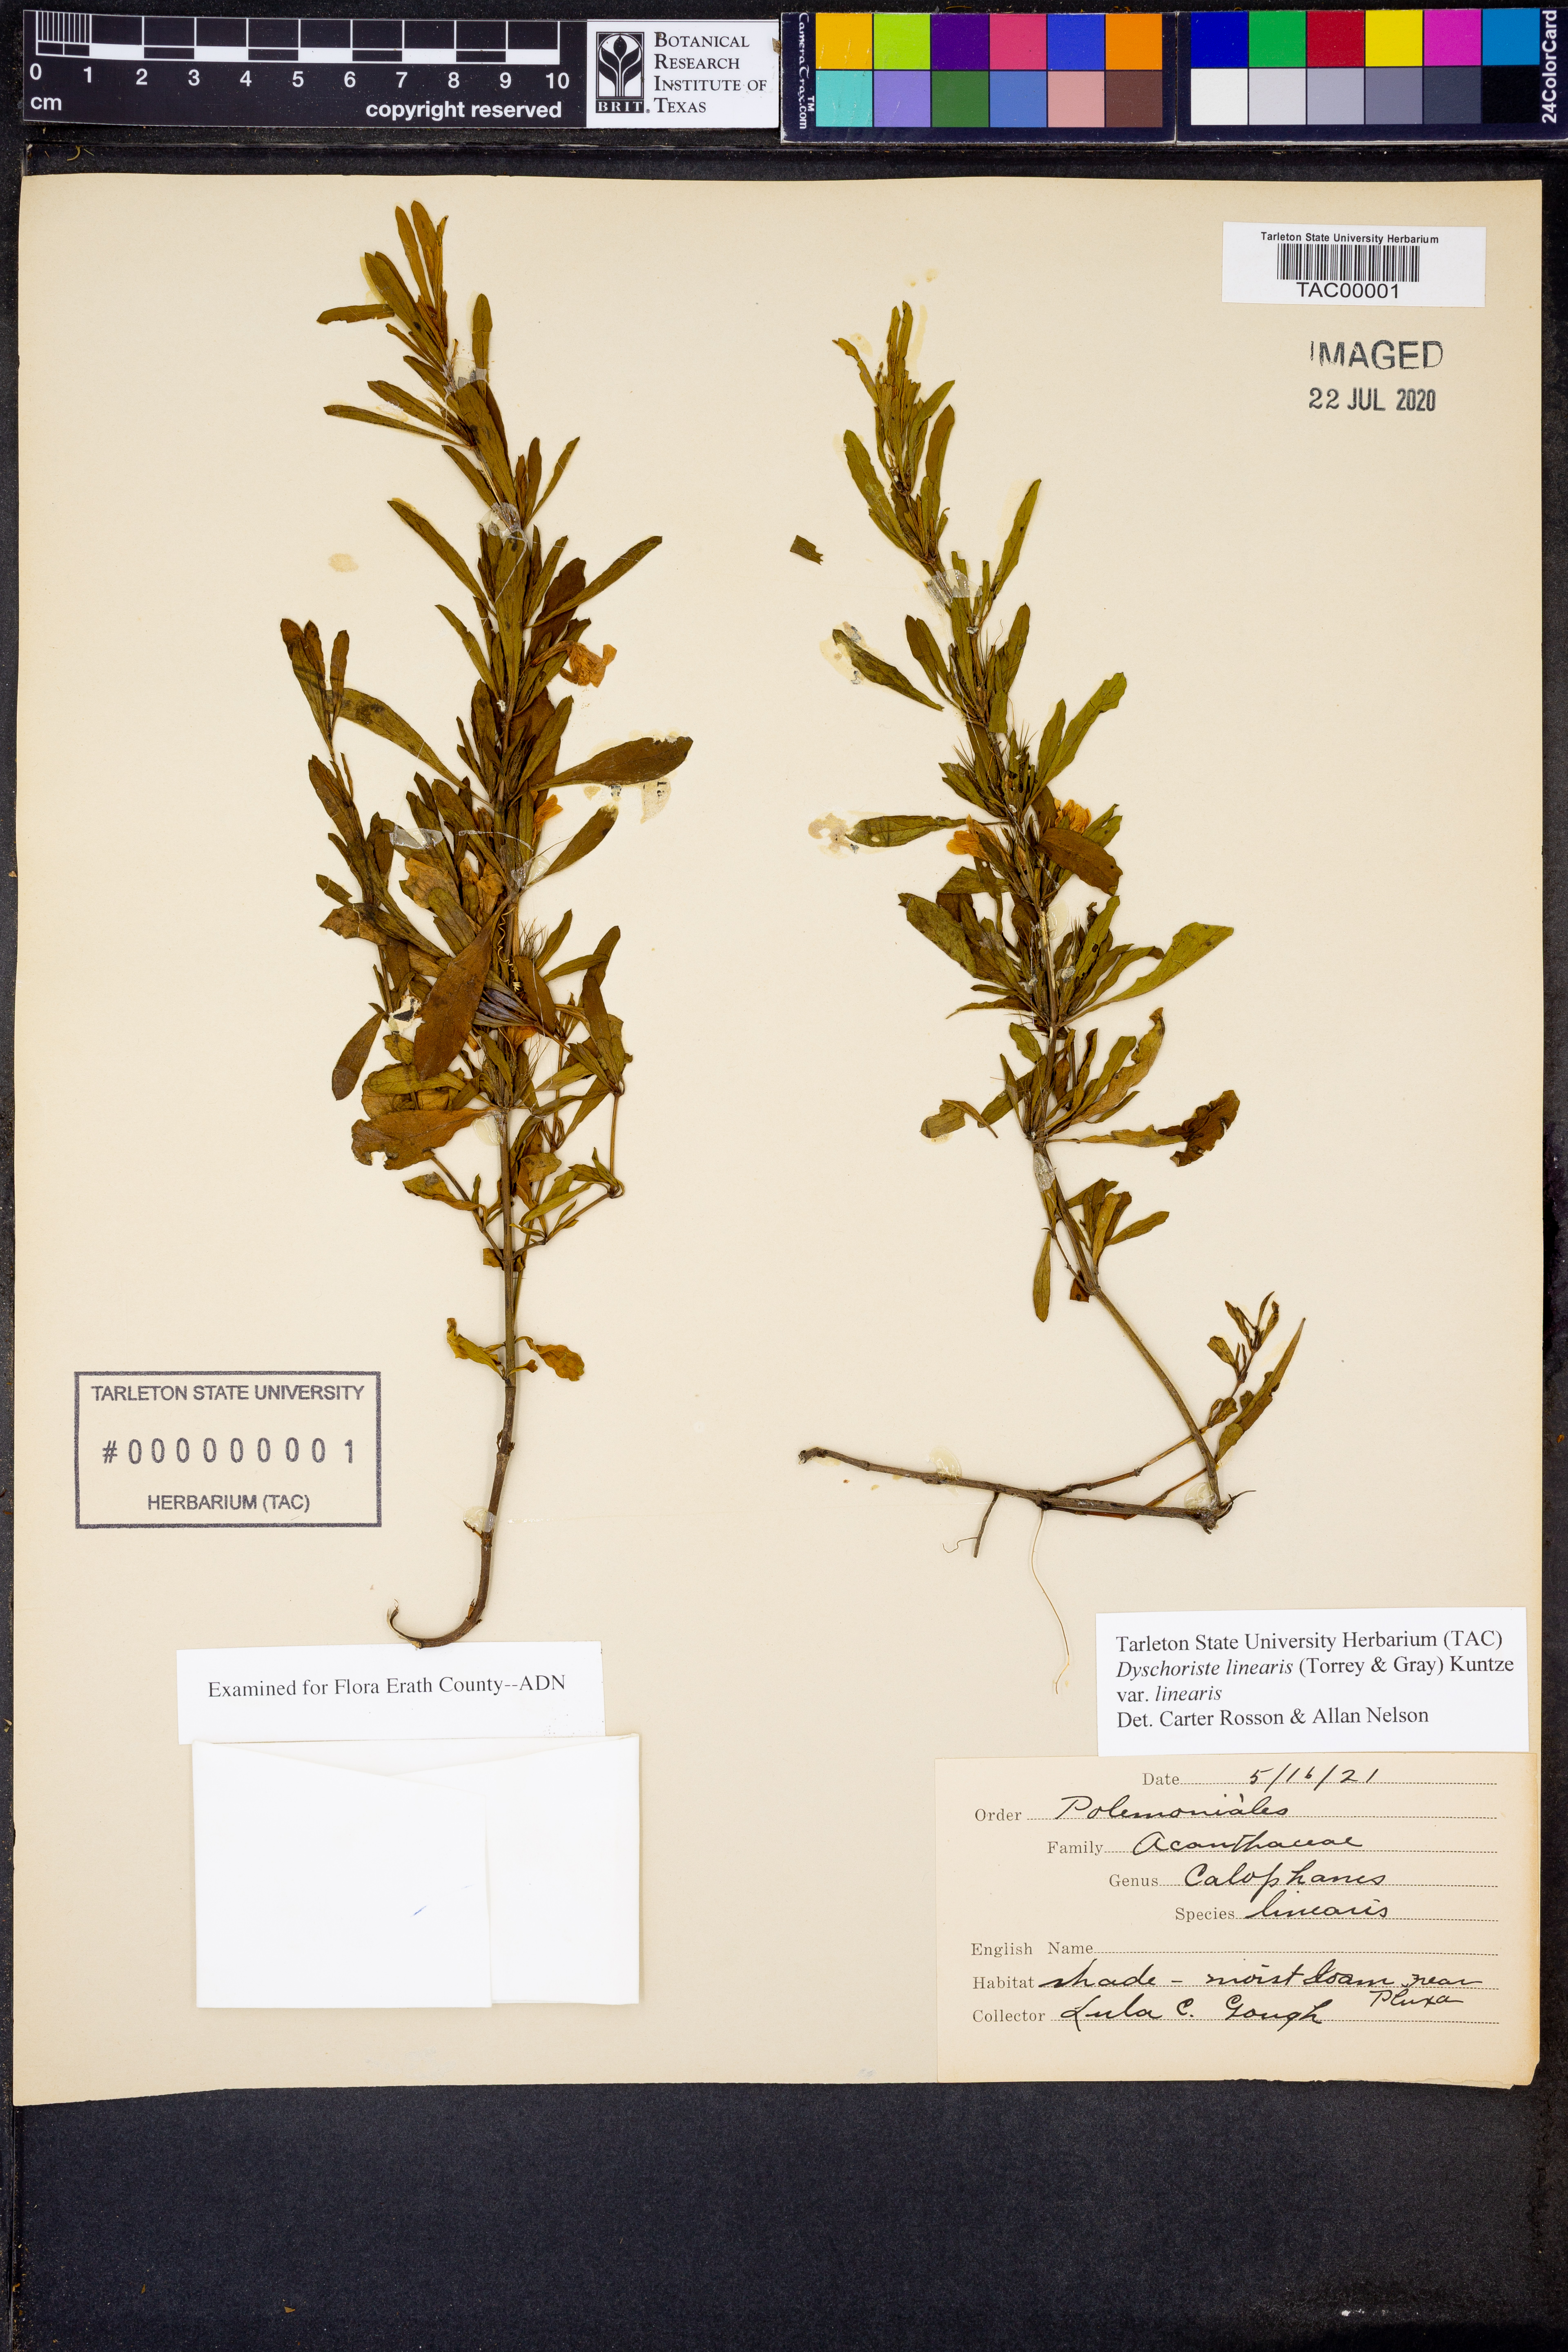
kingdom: Plantae
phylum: Tracheophyta
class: Magnoliopsida
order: Lamiales
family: Acanthaceae
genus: Dyschoriste
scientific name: Dyschoriste linearis
